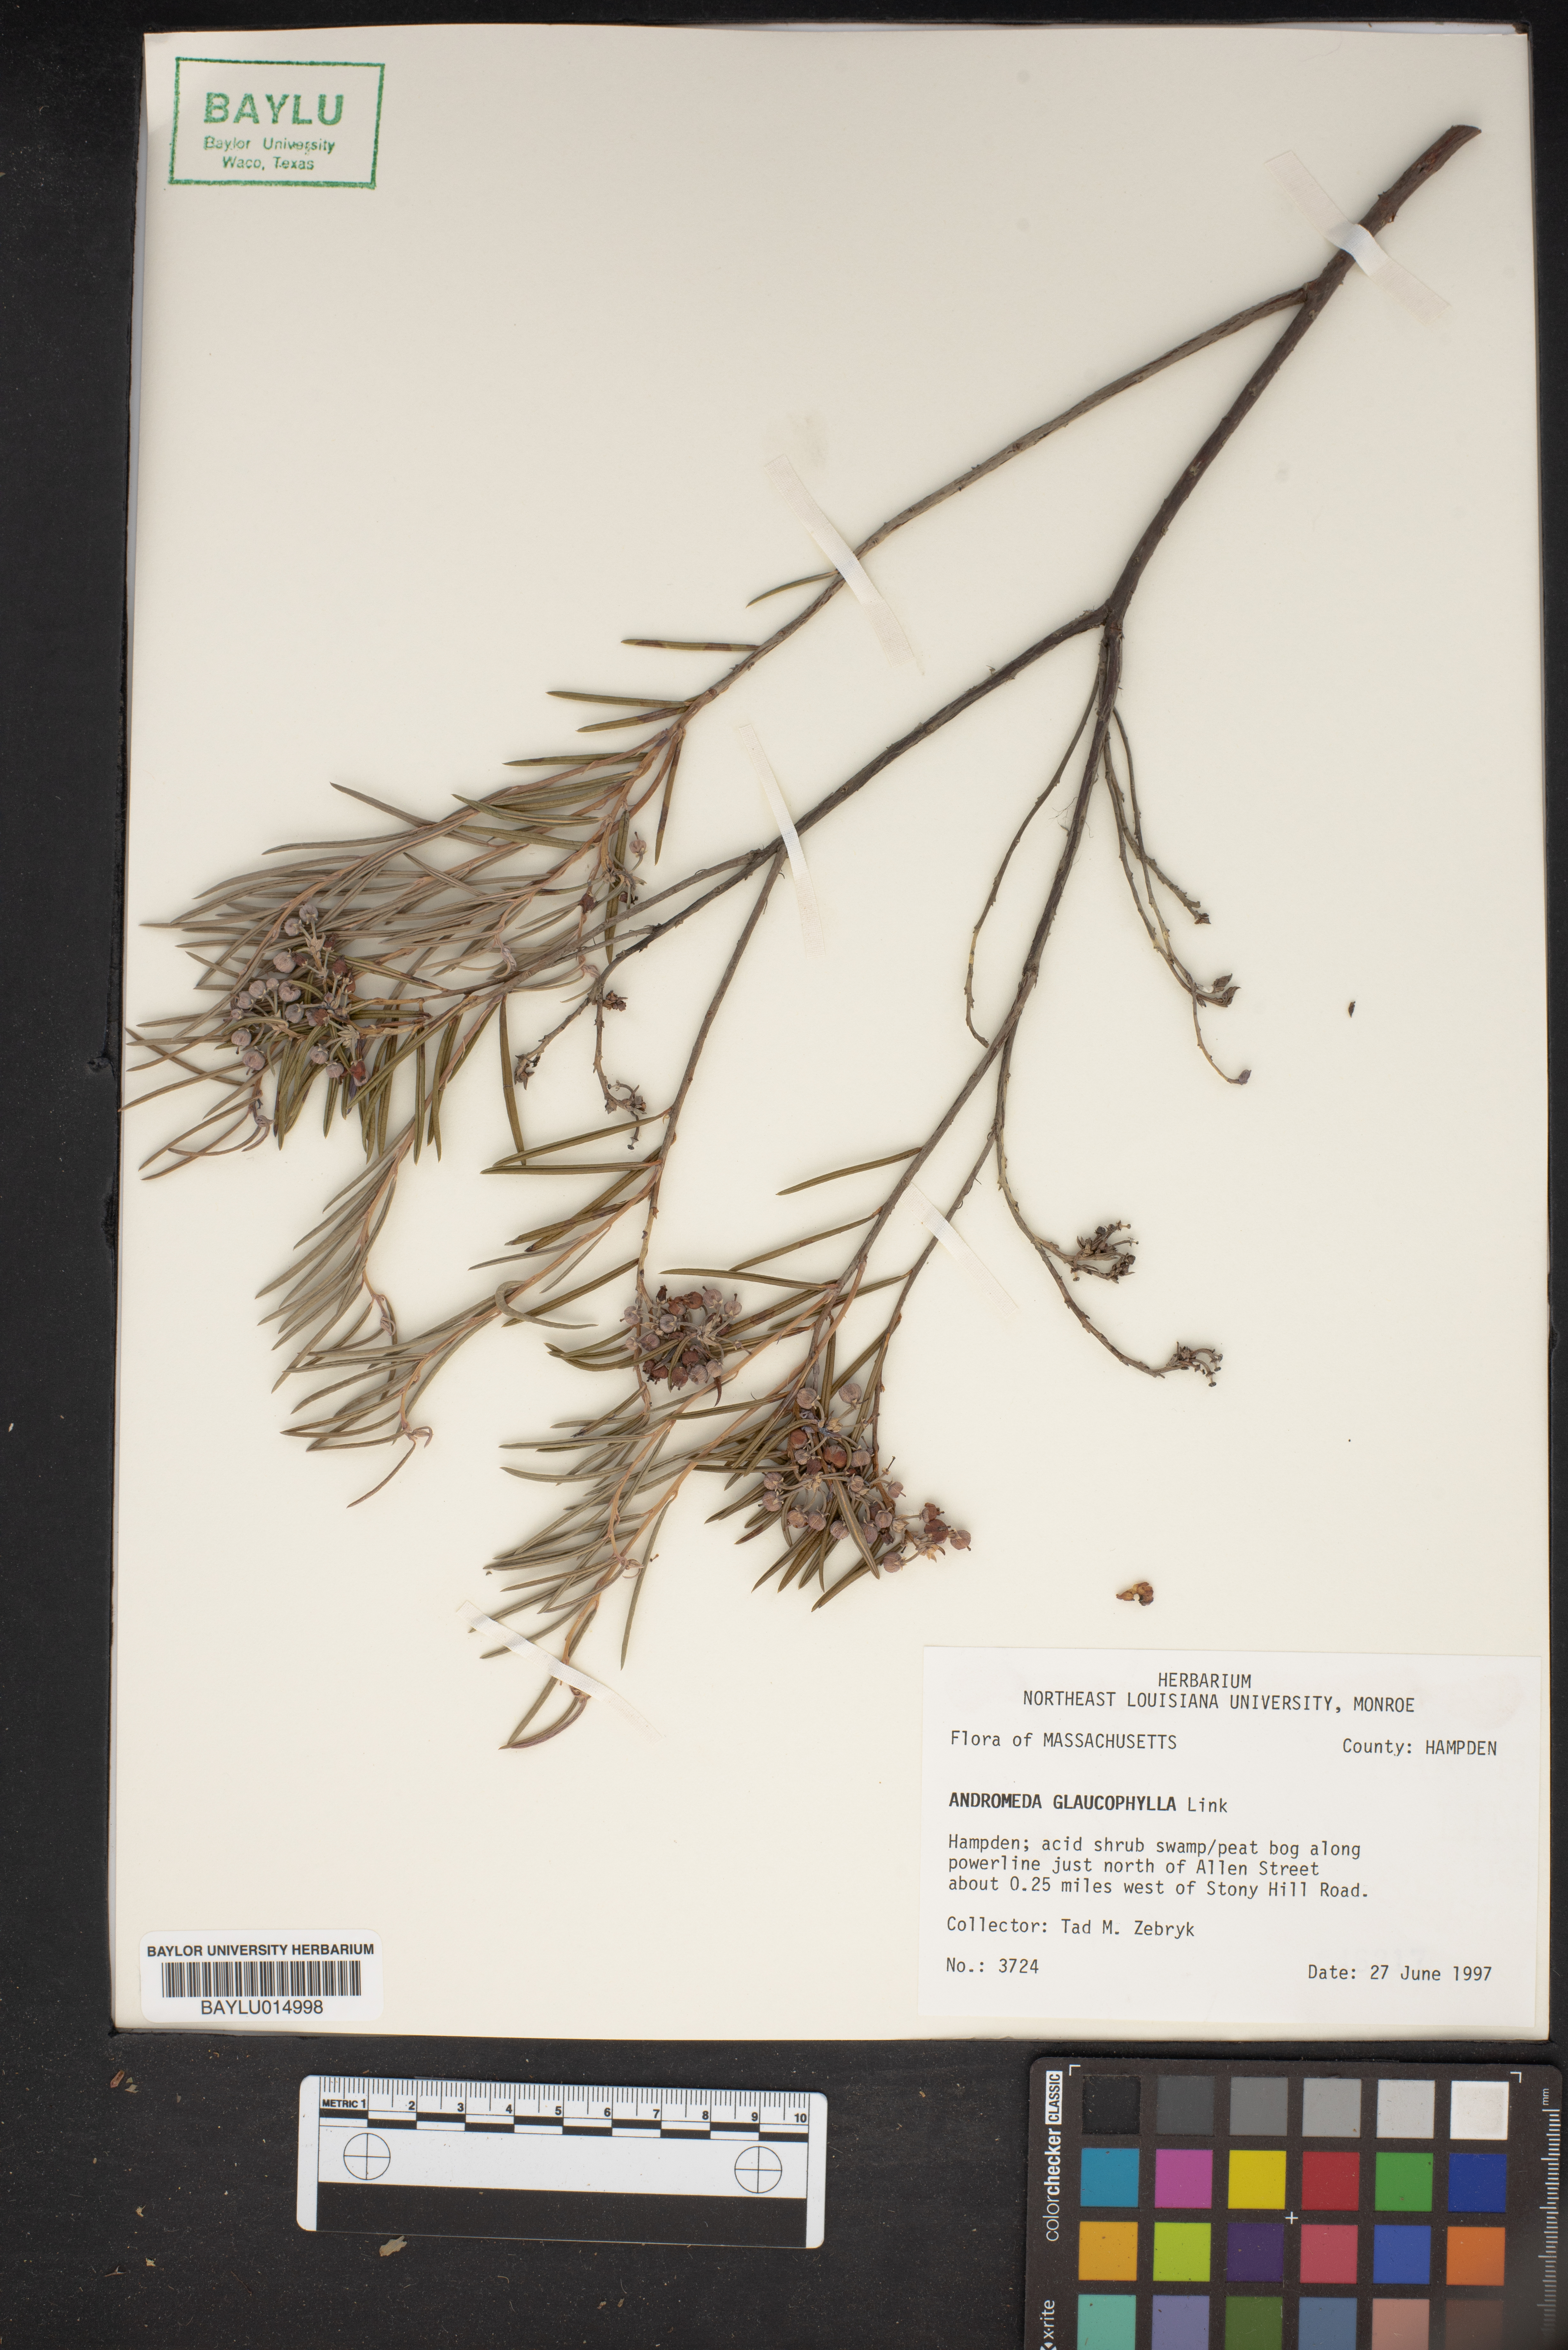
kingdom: Plantae
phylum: Tracheophyta
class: Magnoliopsida
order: Ericales
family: Ericaceae
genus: Andromeda
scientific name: Andromeda polifolia
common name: Bog-rosemary
